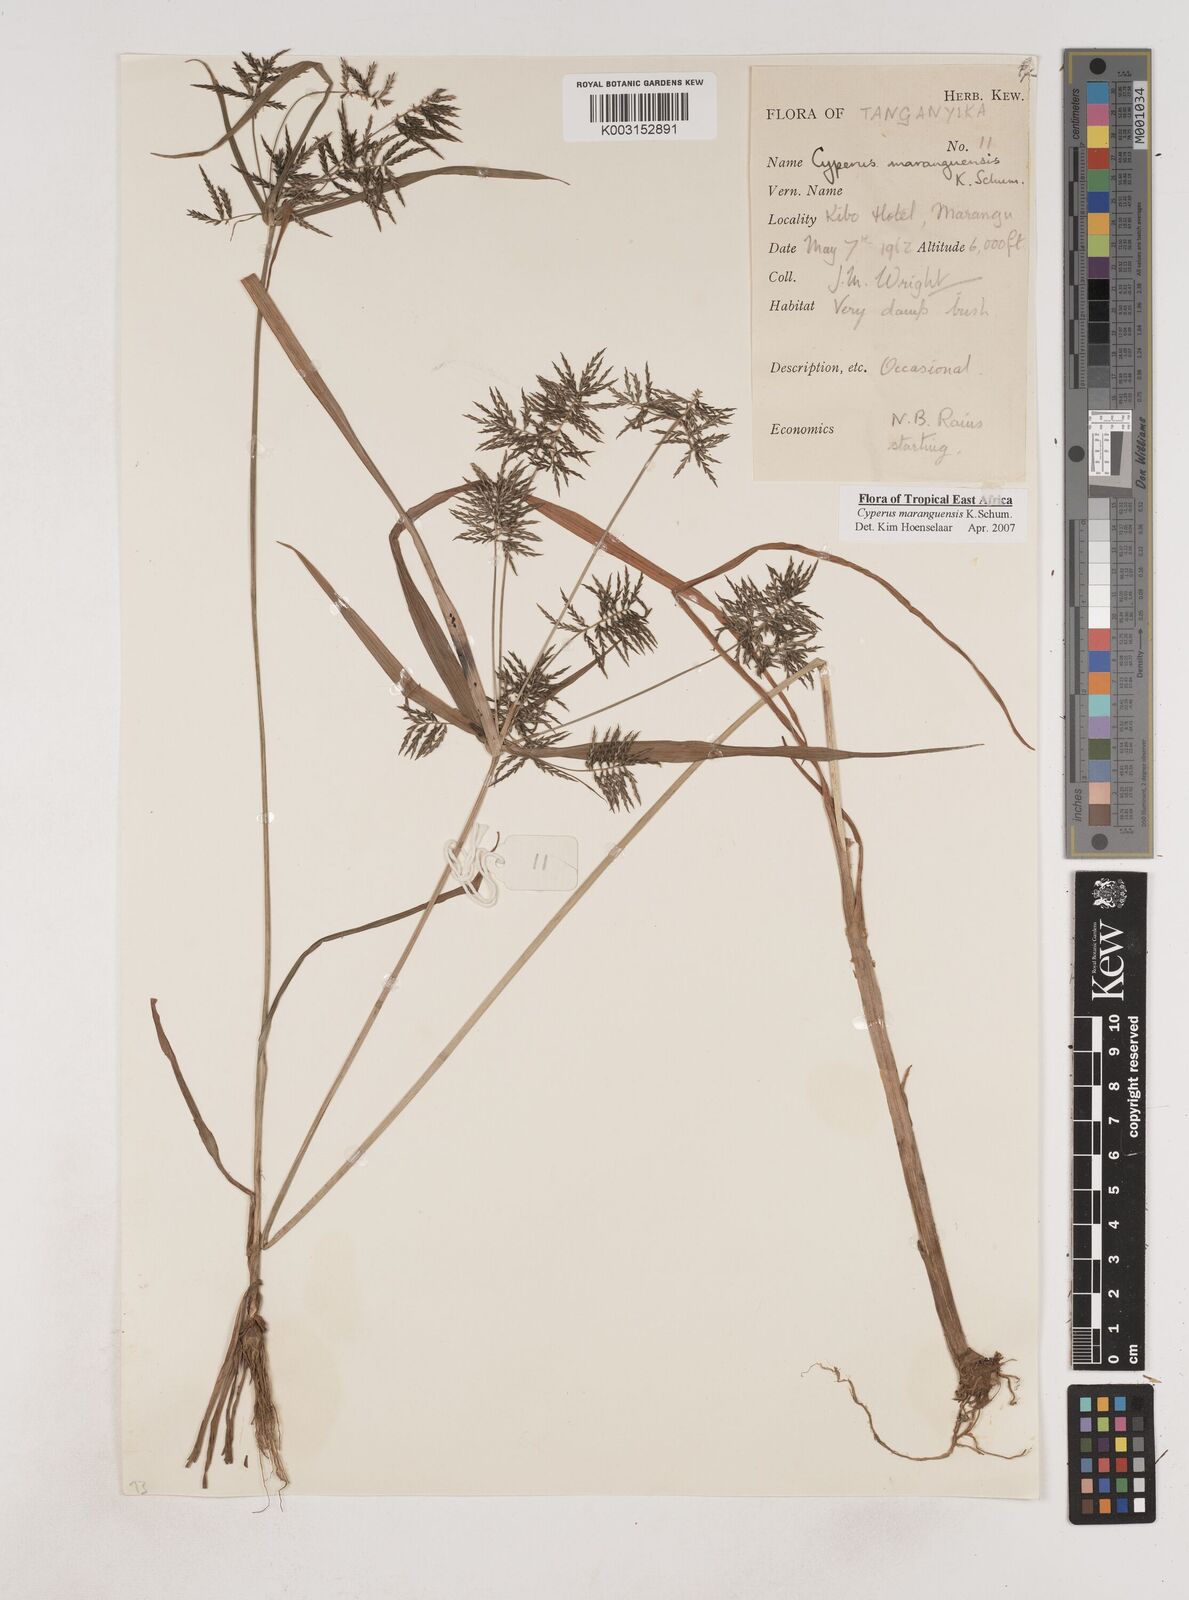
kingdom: Plantae
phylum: Tracheophyta
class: Liliopsida
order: Poales
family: Cyperaceae
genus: Cyperus
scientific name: Cyperus maranguensis
